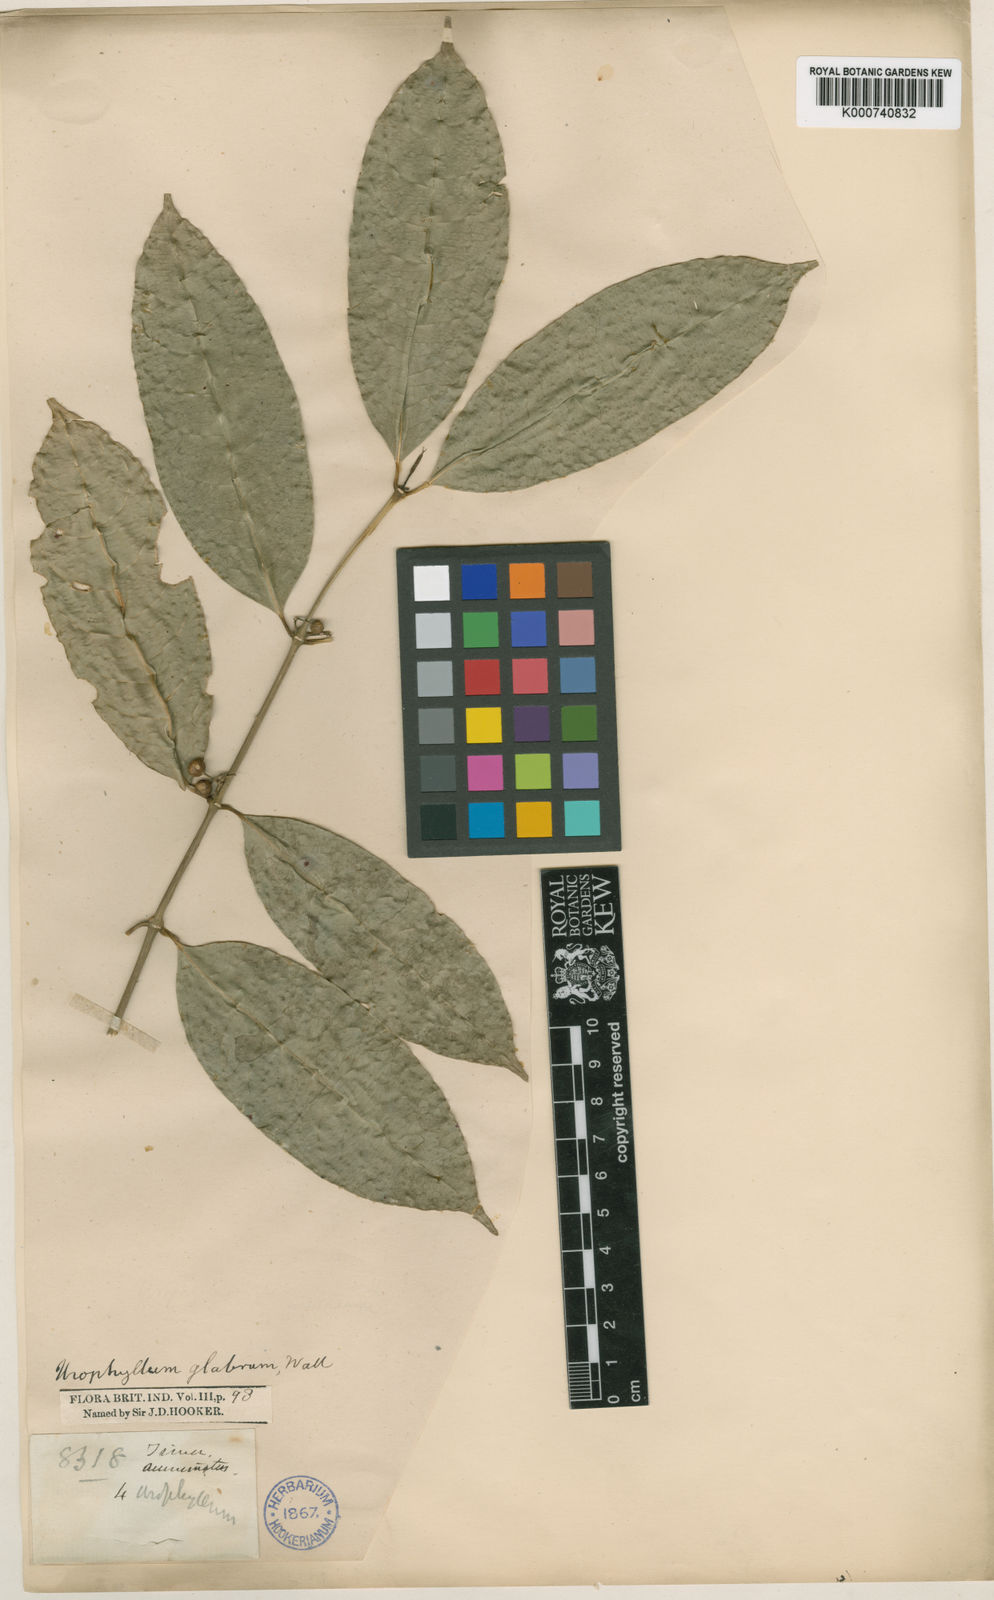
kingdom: Plantae
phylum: Tracheophyta
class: Magnoliopsida
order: Gentianales
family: Rubiaceae
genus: Urophyllum
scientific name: Urophyllum glabrum
